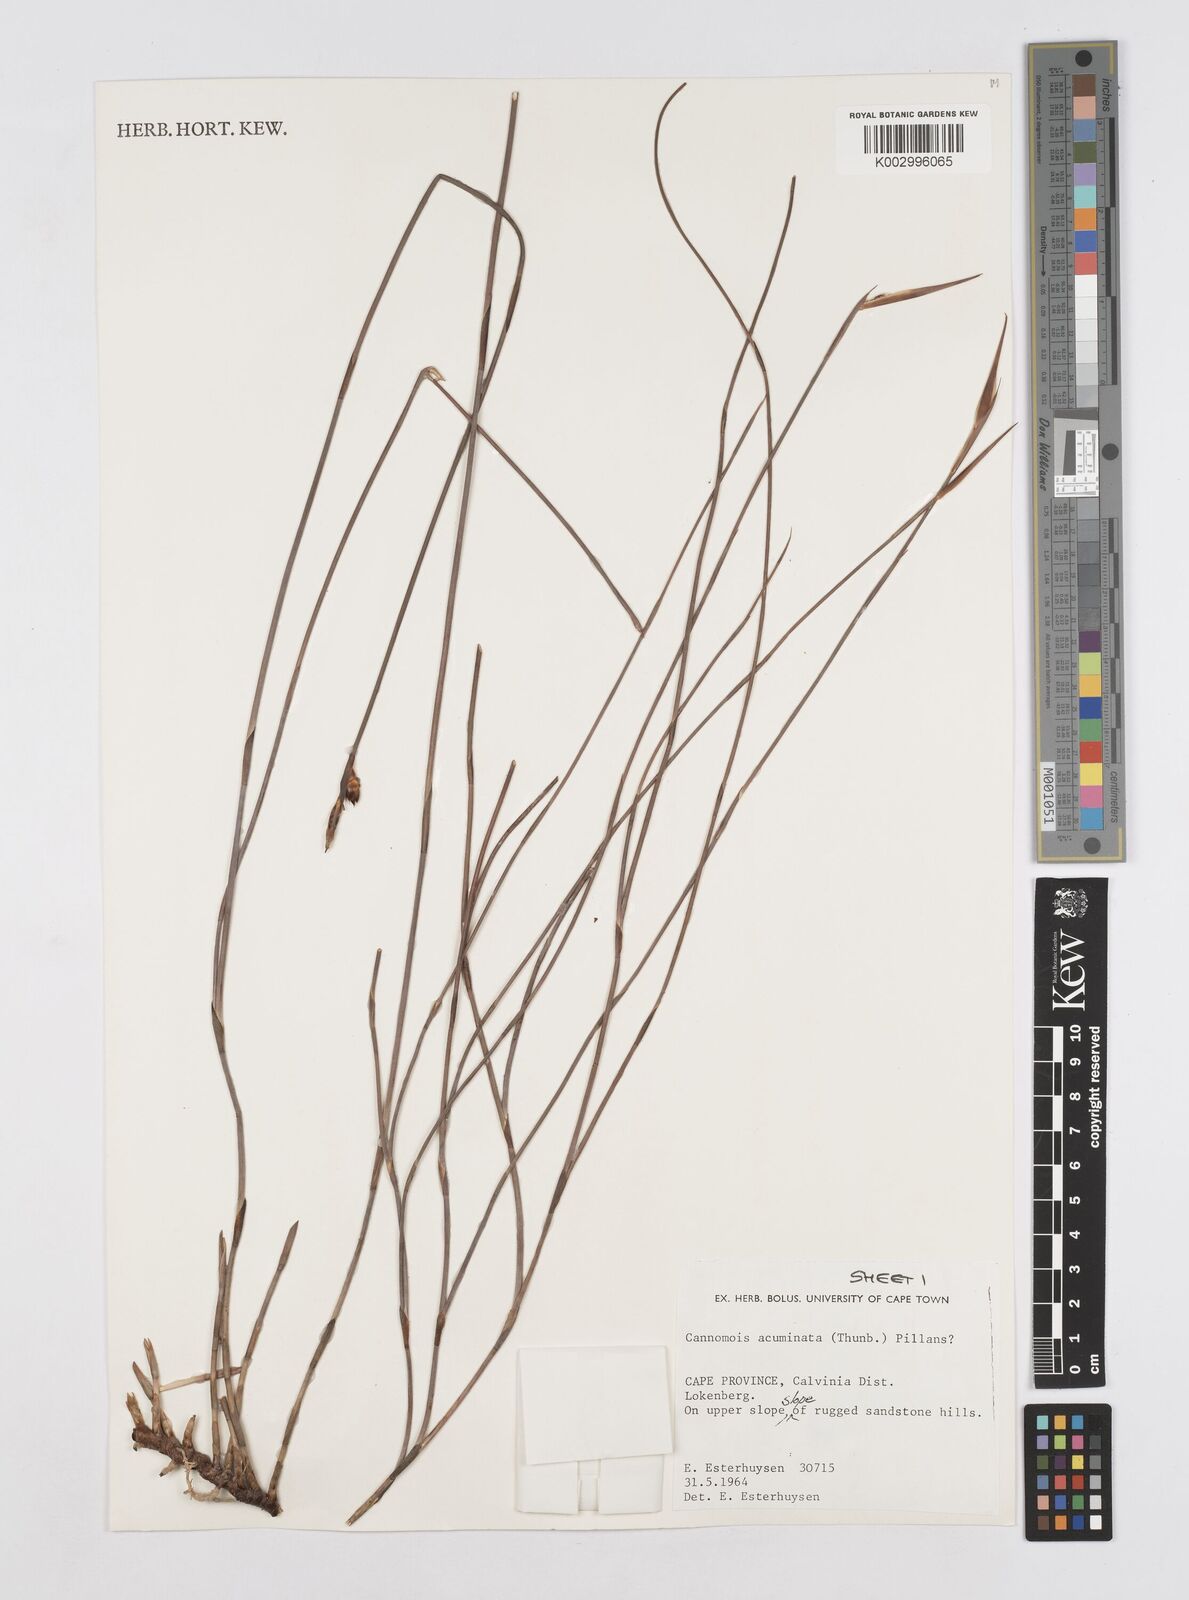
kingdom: Plantae
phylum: Tracheophyta
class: Liliopsida
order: Poales
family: Restionaceae
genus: Cannomois
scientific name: Cannomois parviflora
